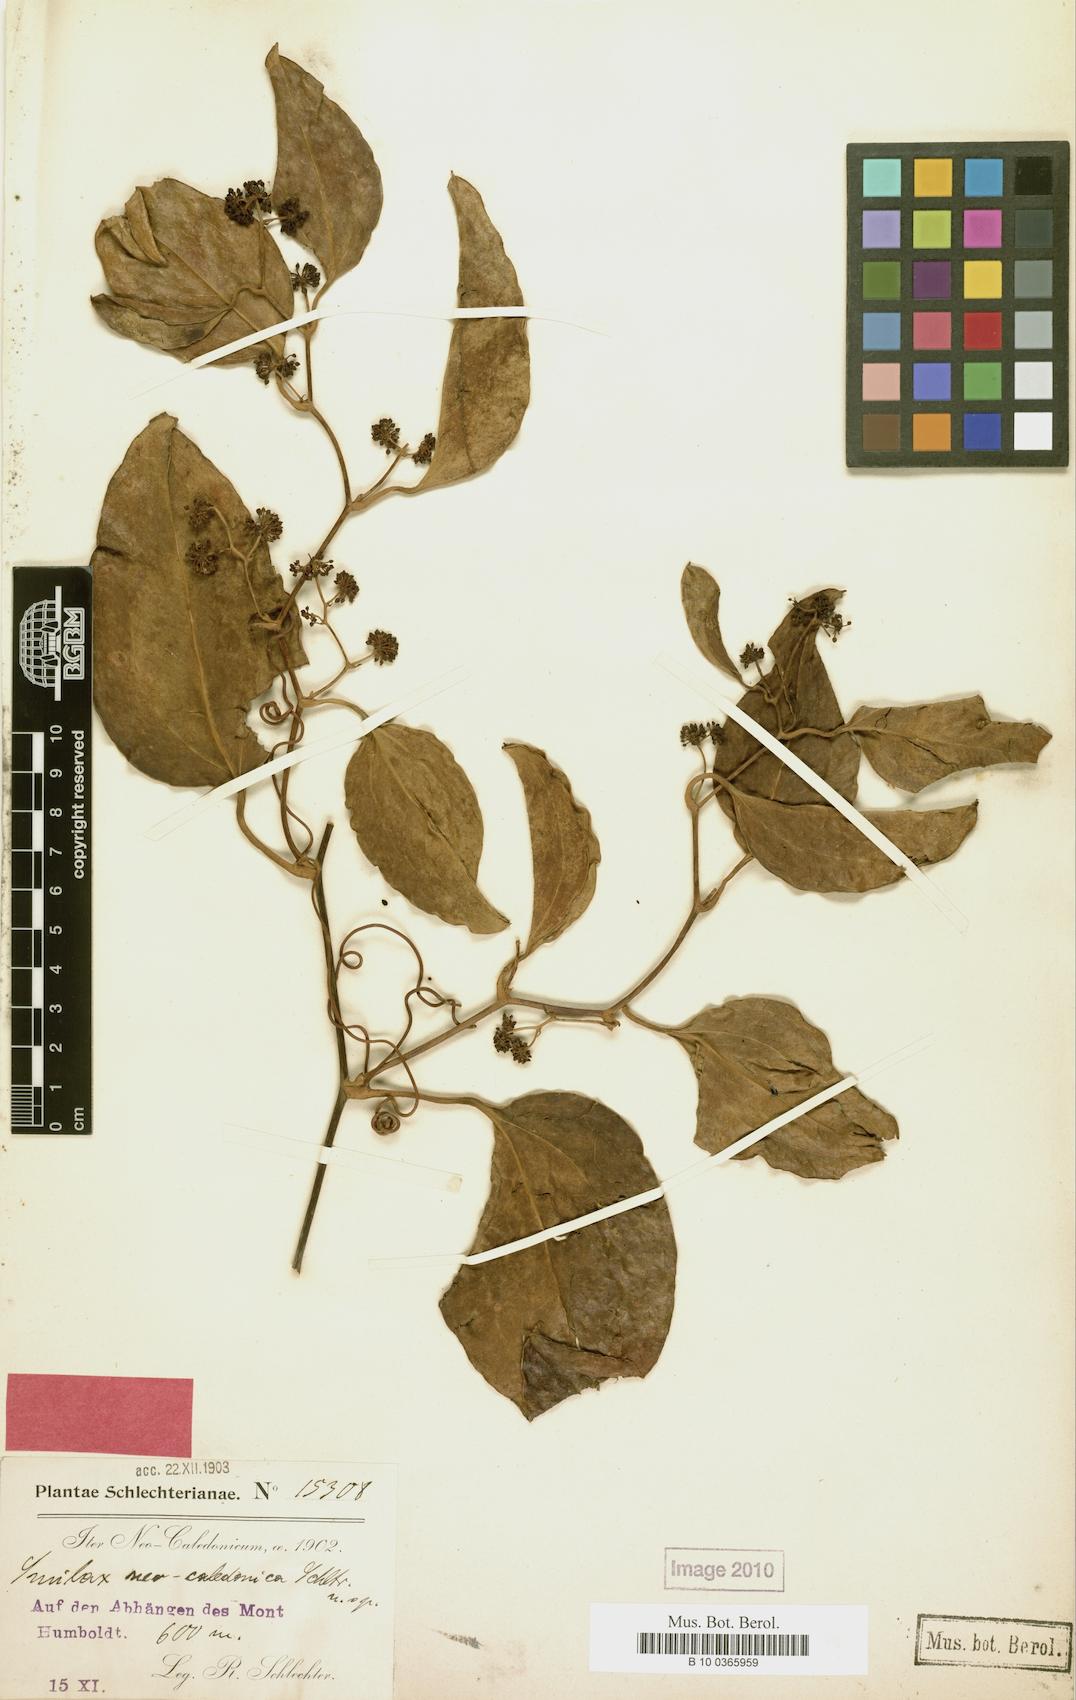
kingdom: Plantae
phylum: Tracheophyta
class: Liliopsida
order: Liliales
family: Smilacaceae
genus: Smilax
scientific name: Smilax neocaledonica
